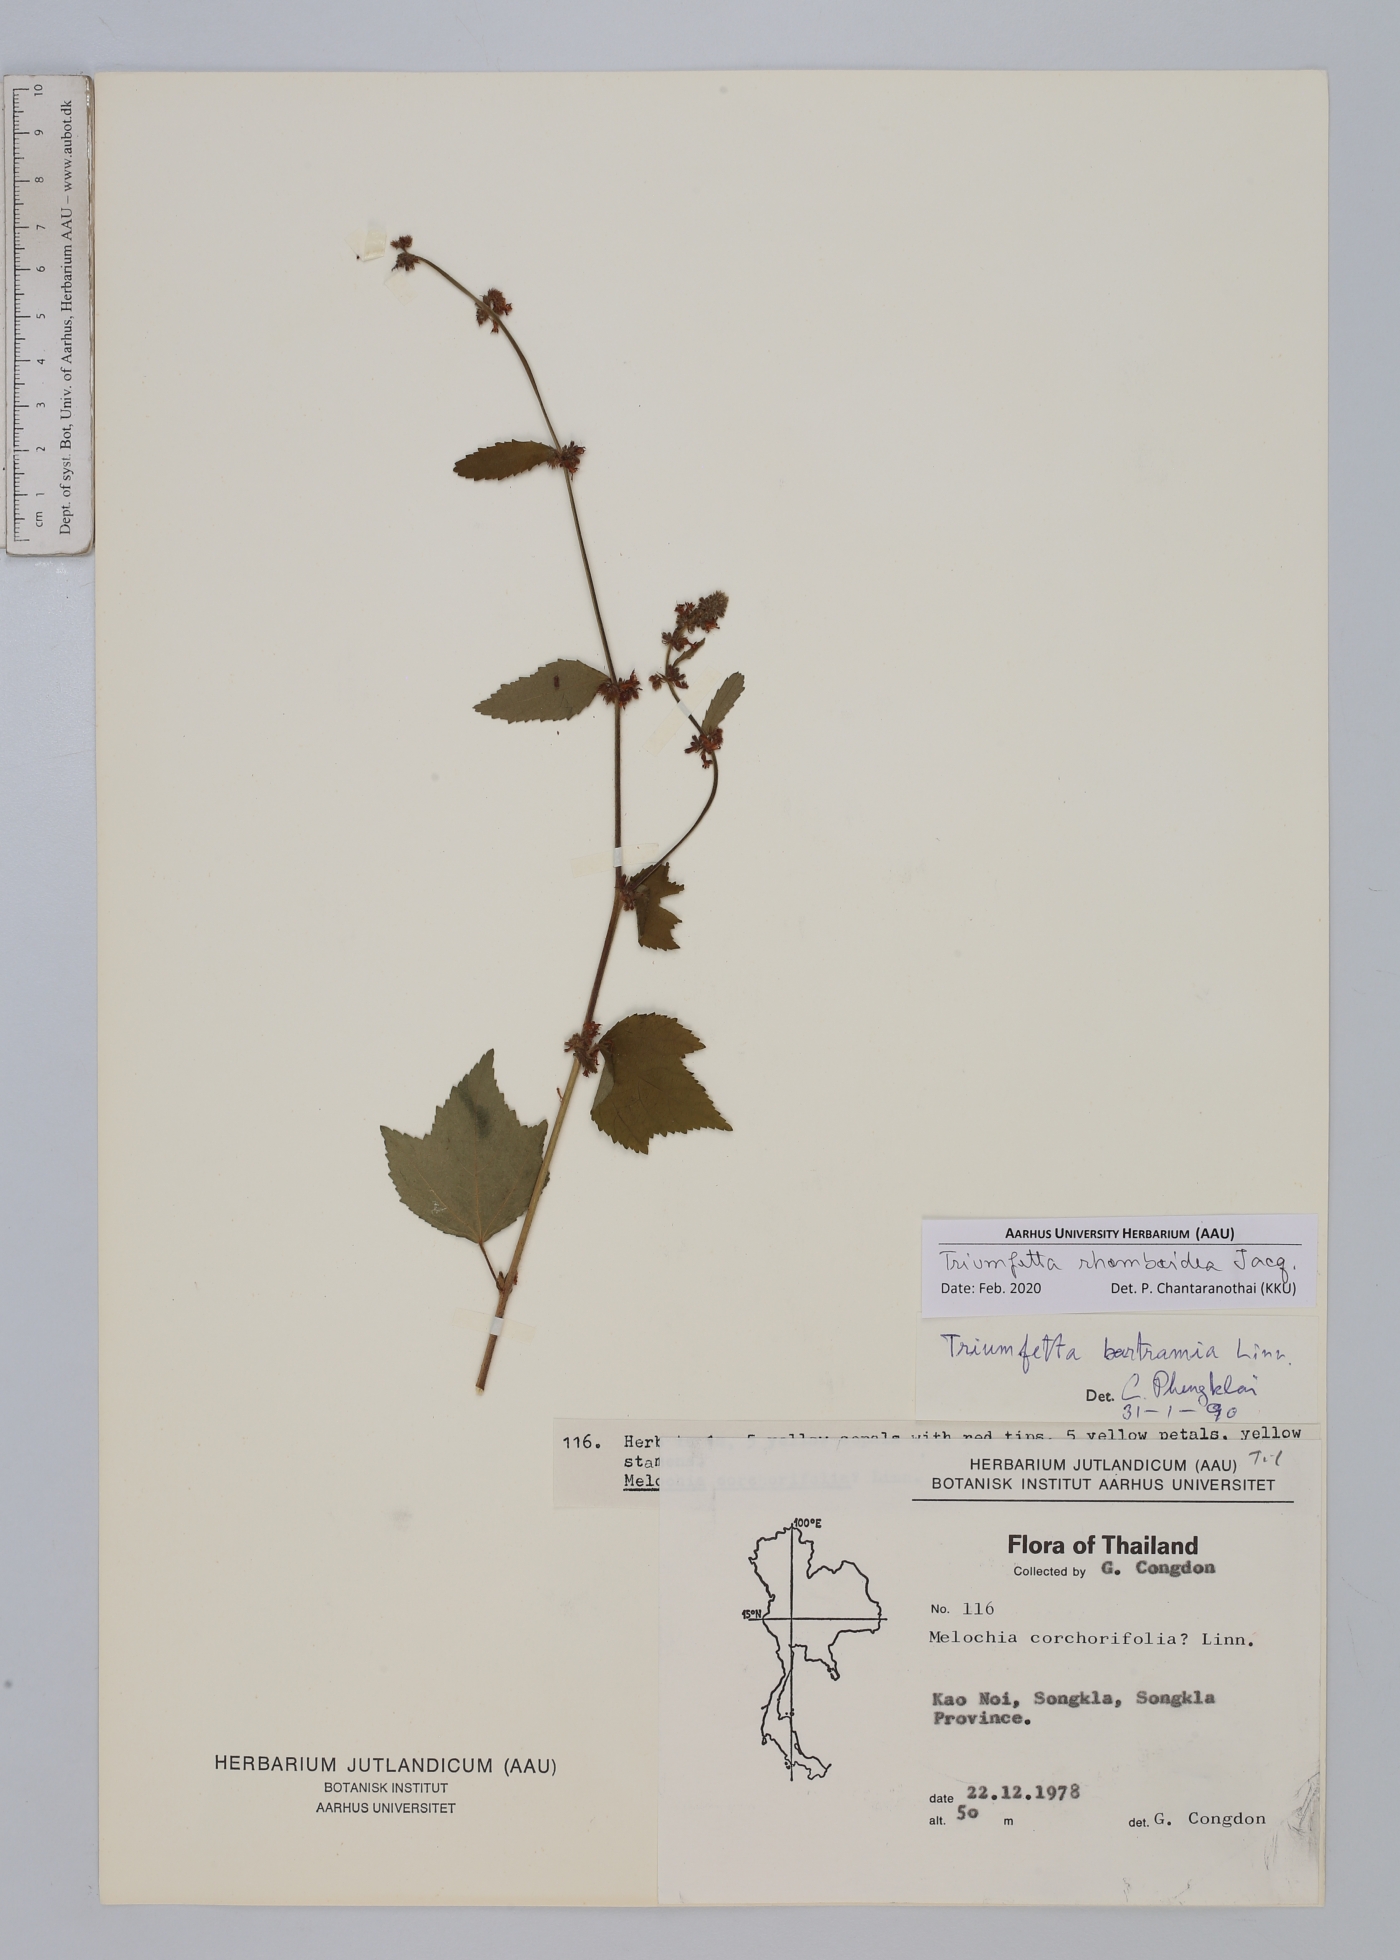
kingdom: Plantae
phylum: Tracheophyta
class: Magnoliopsida
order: Malvales
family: Malvaceae
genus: Triumfetta
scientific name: Triumfetta rhomboidea
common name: Diamond burbark
